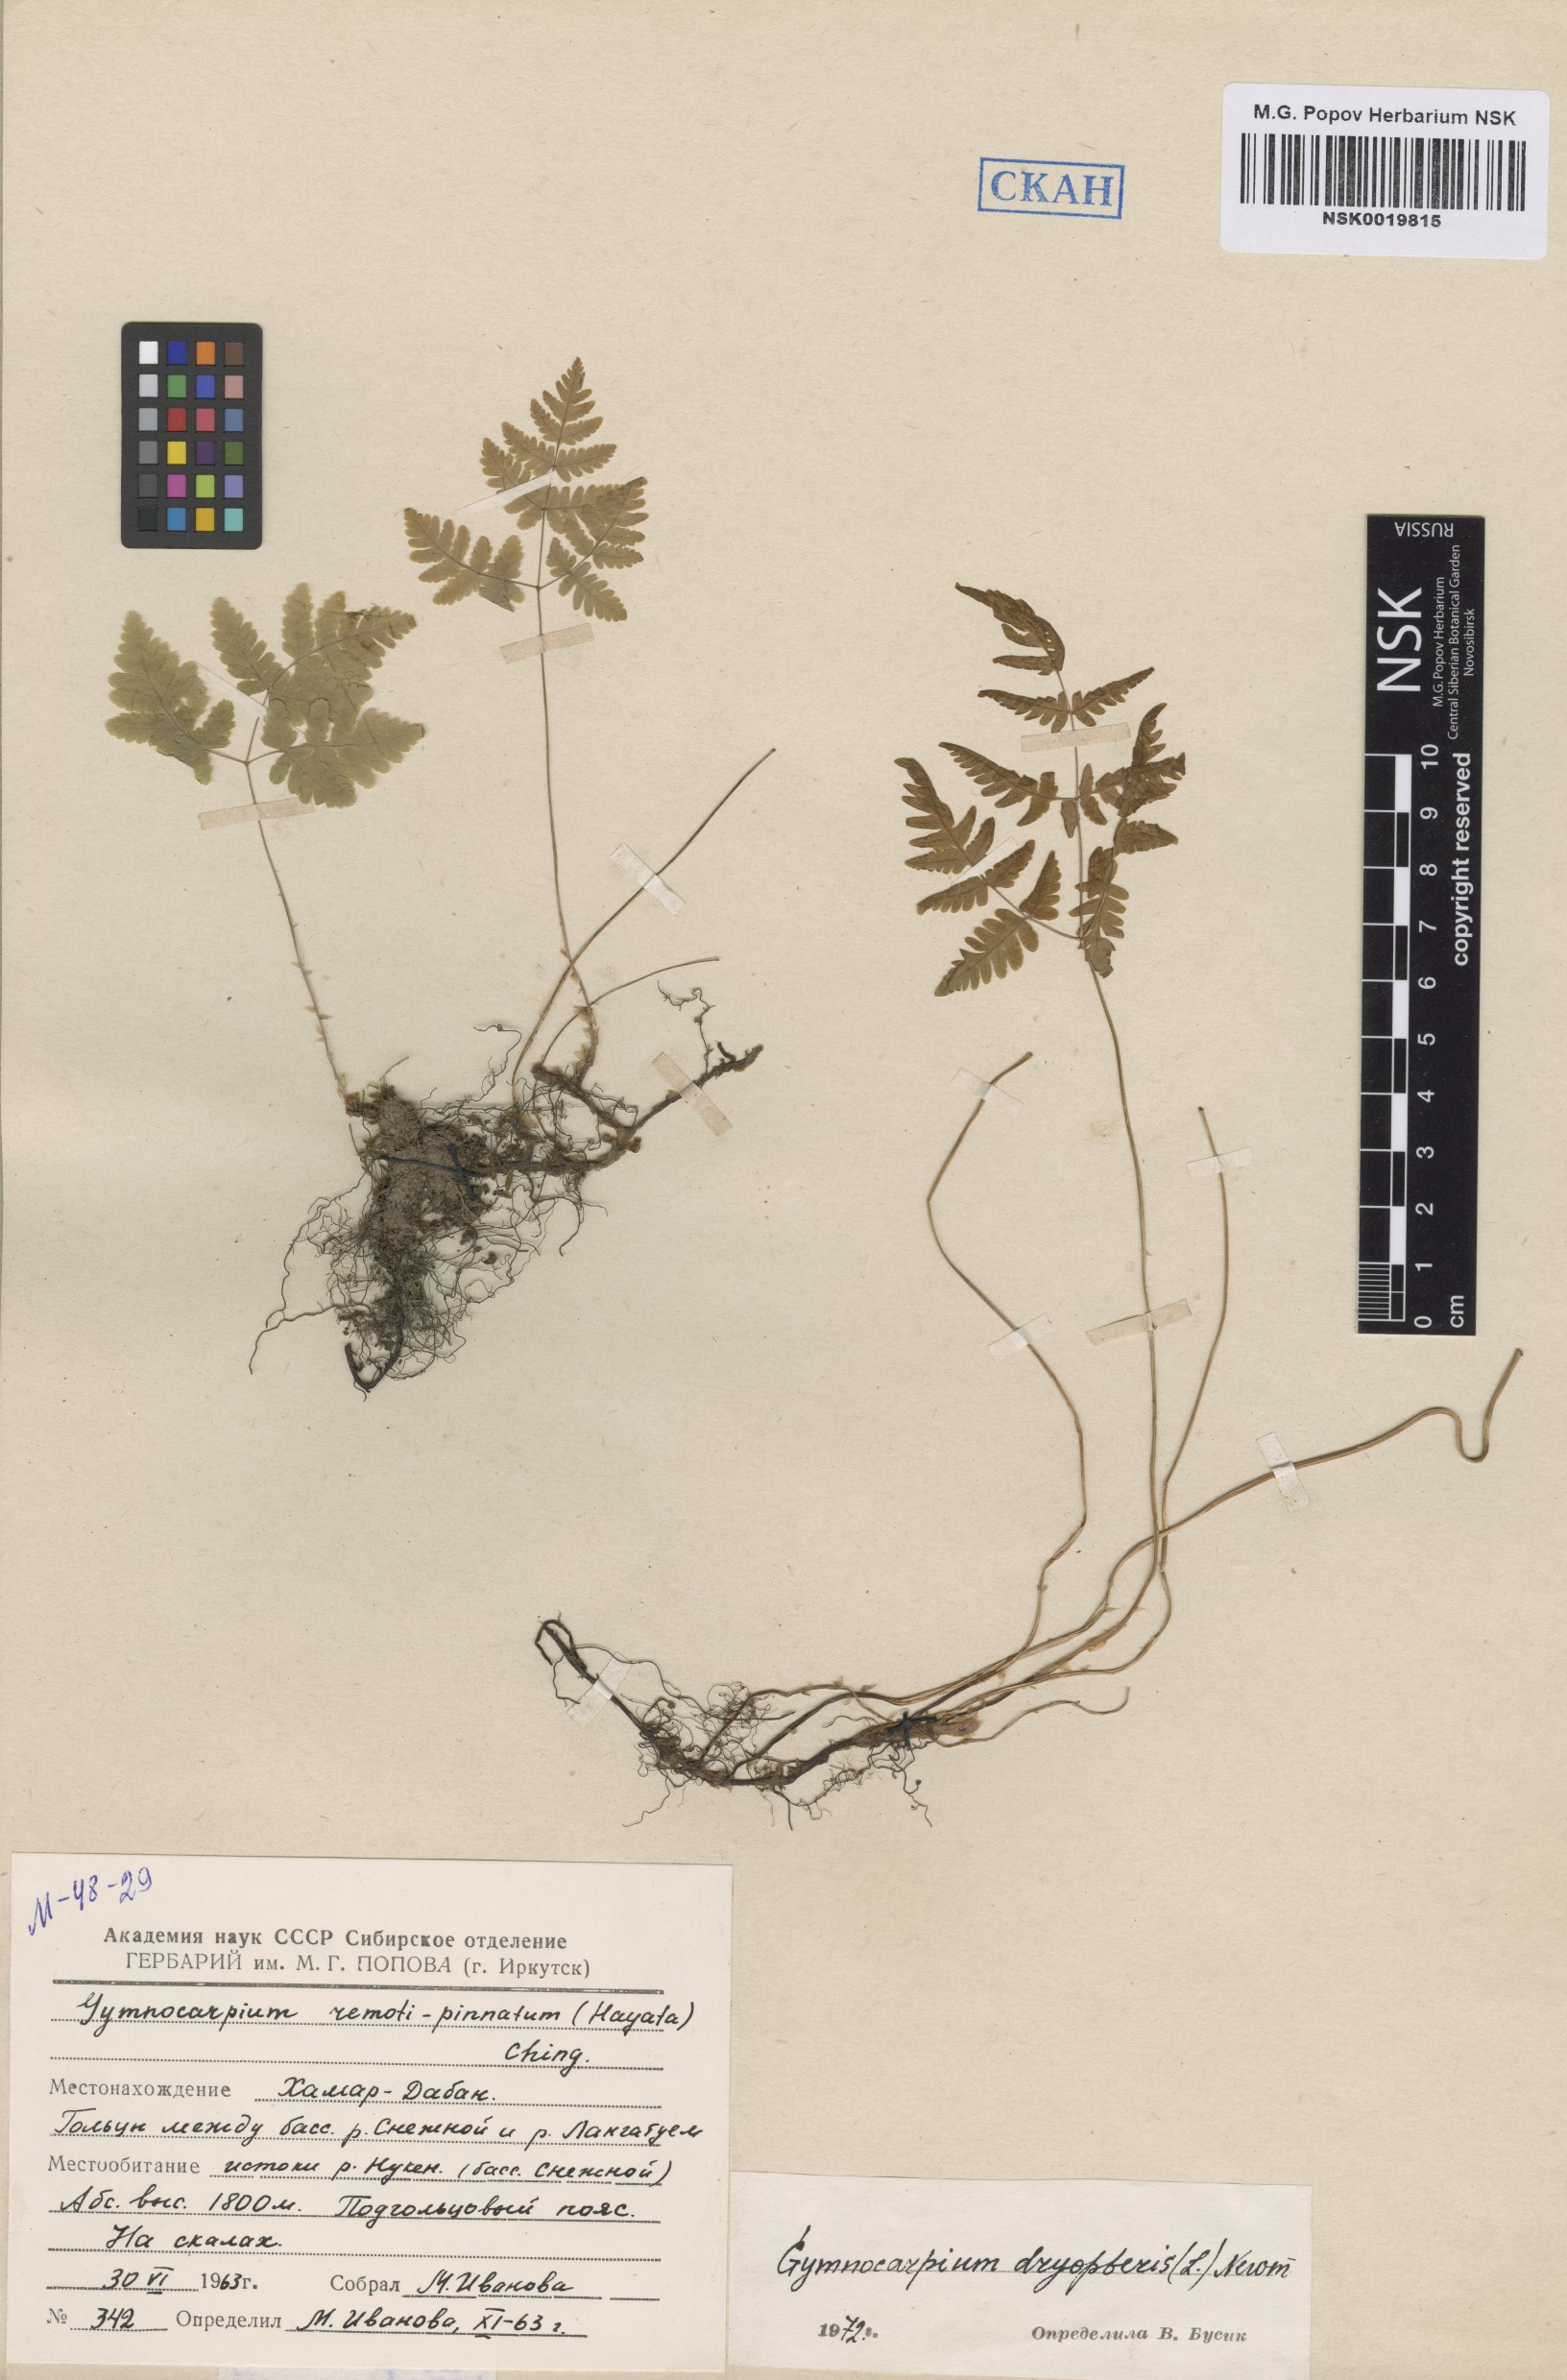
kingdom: Plantae
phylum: Tracheophyta
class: Polypodiopsida
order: Polypodiales
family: Cystopteridaceae
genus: Gymnocarpium
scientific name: Gymnocarpium dryopteris
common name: Oak fern
